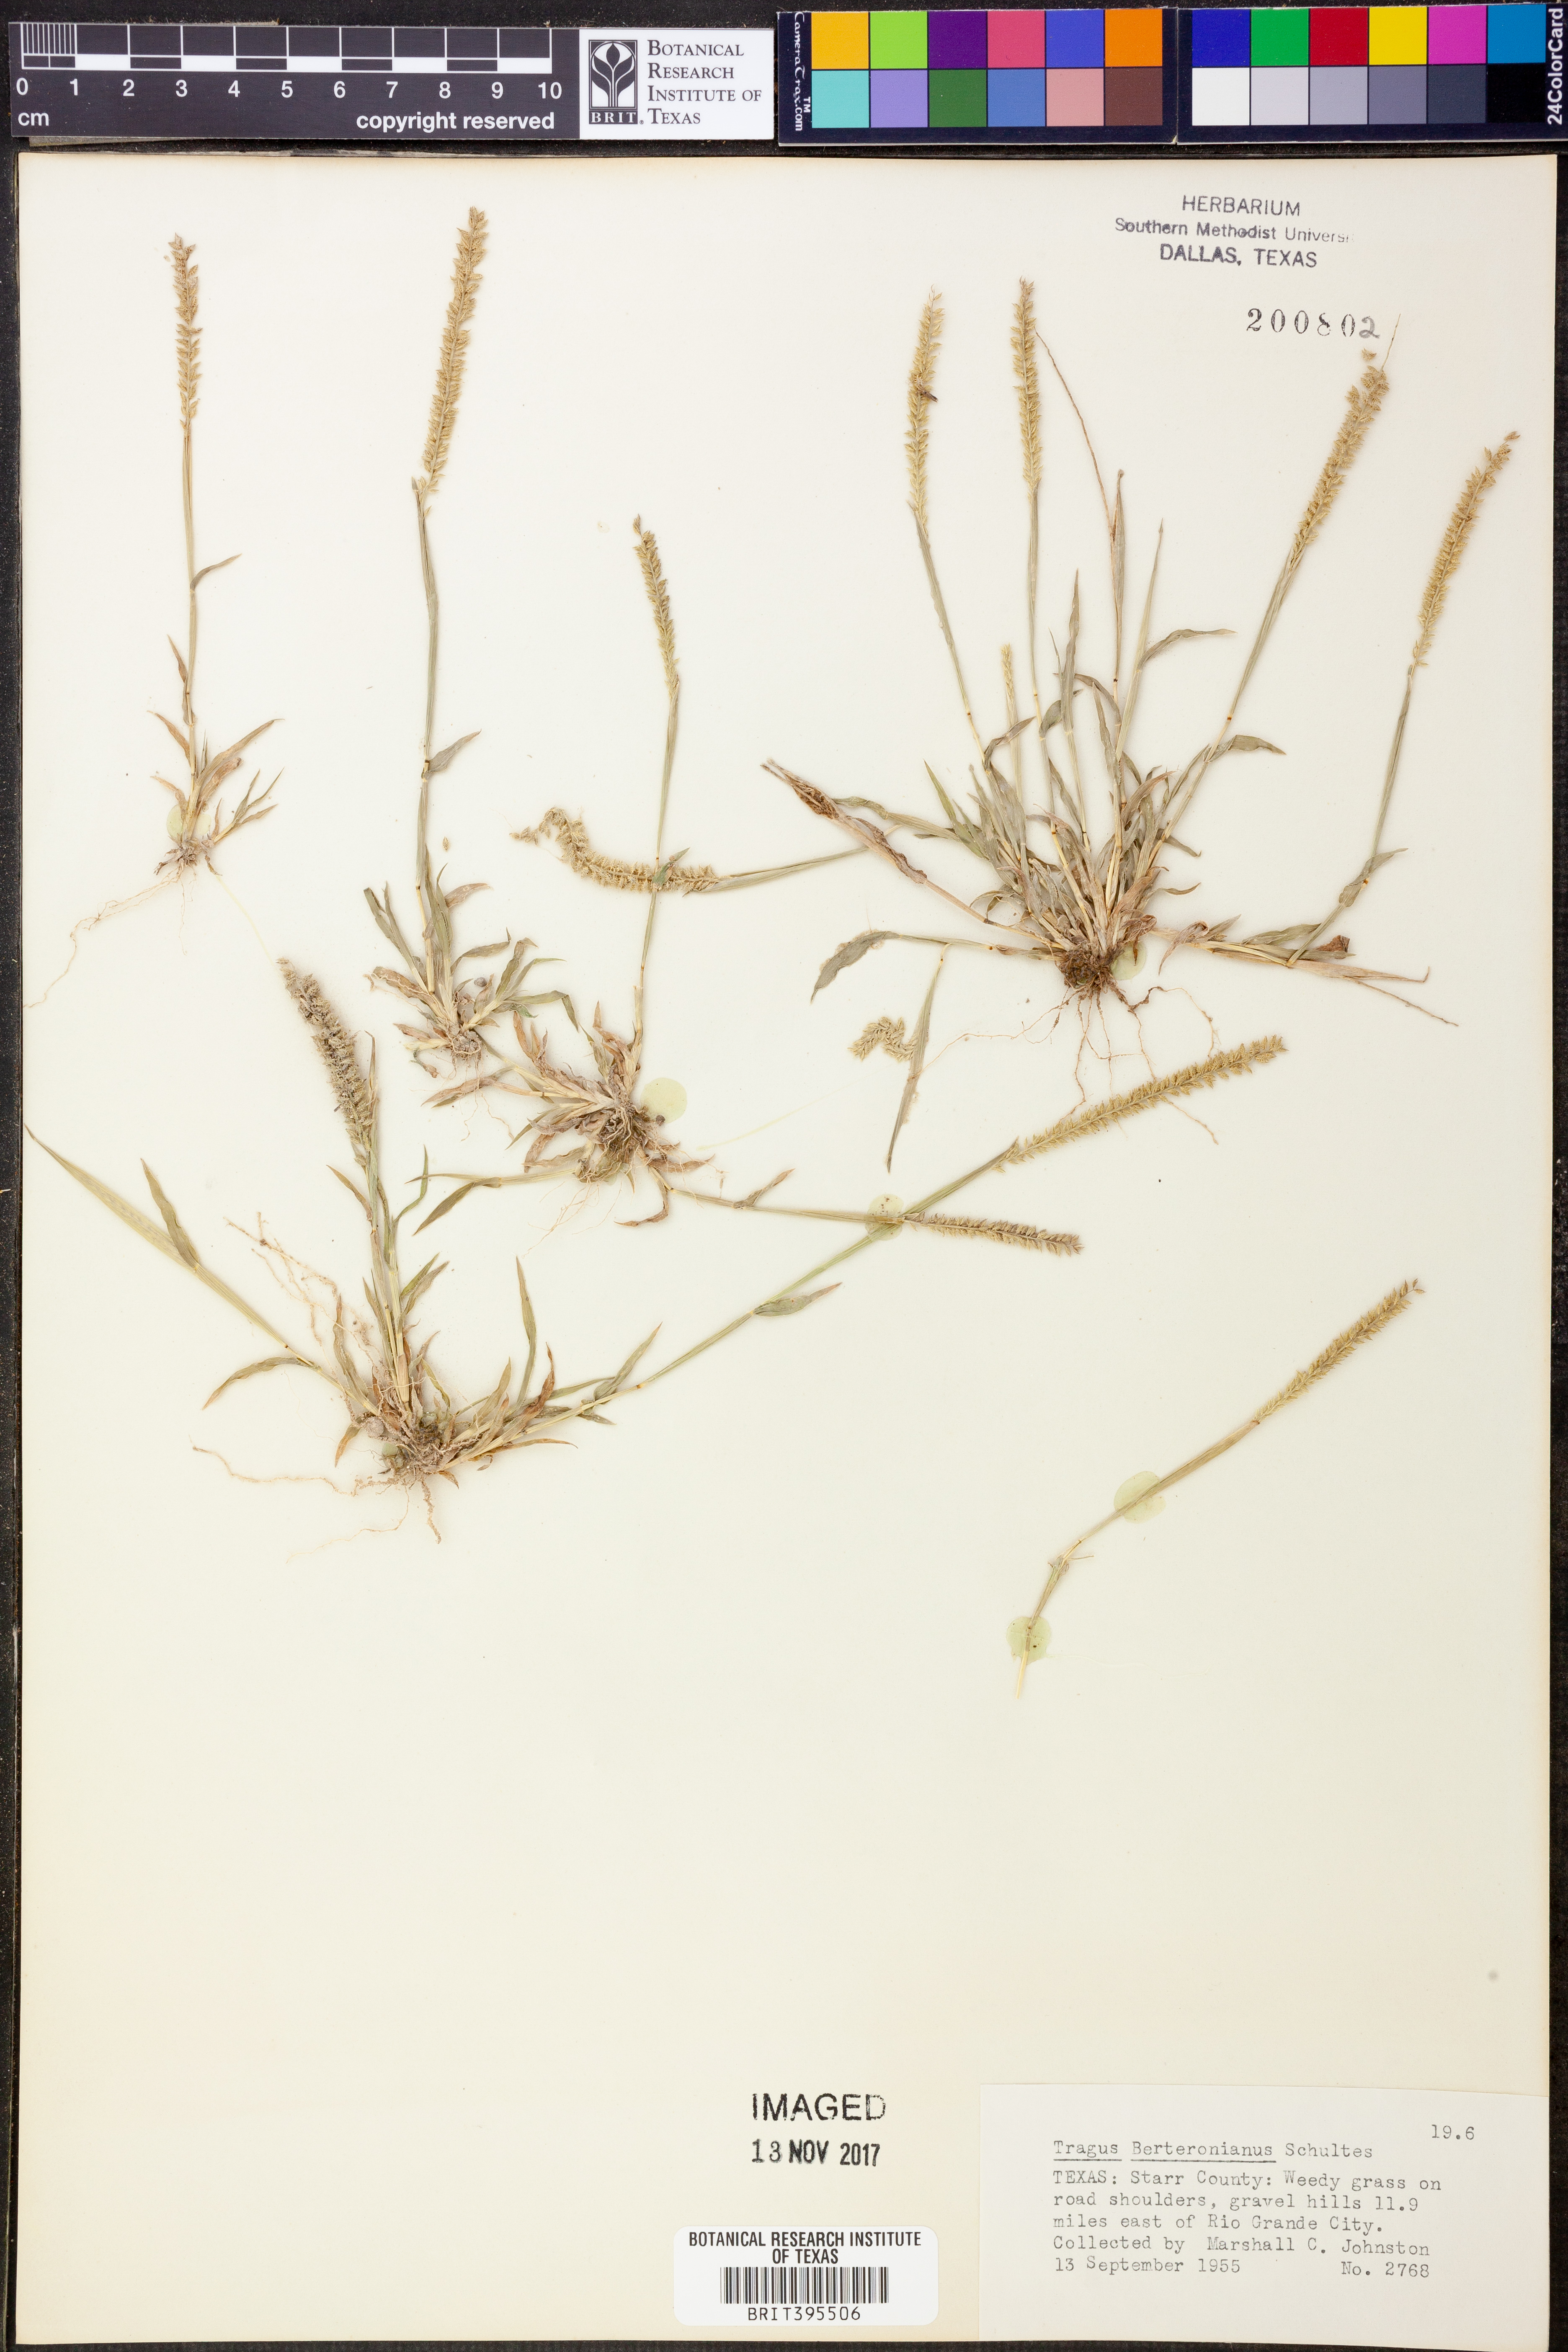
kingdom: Plantae
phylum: Tracheophyta
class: Liliopsida
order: Poales
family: Poaceae
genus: Tragus
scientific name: Tragus berteronianus
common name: African bur-grass
